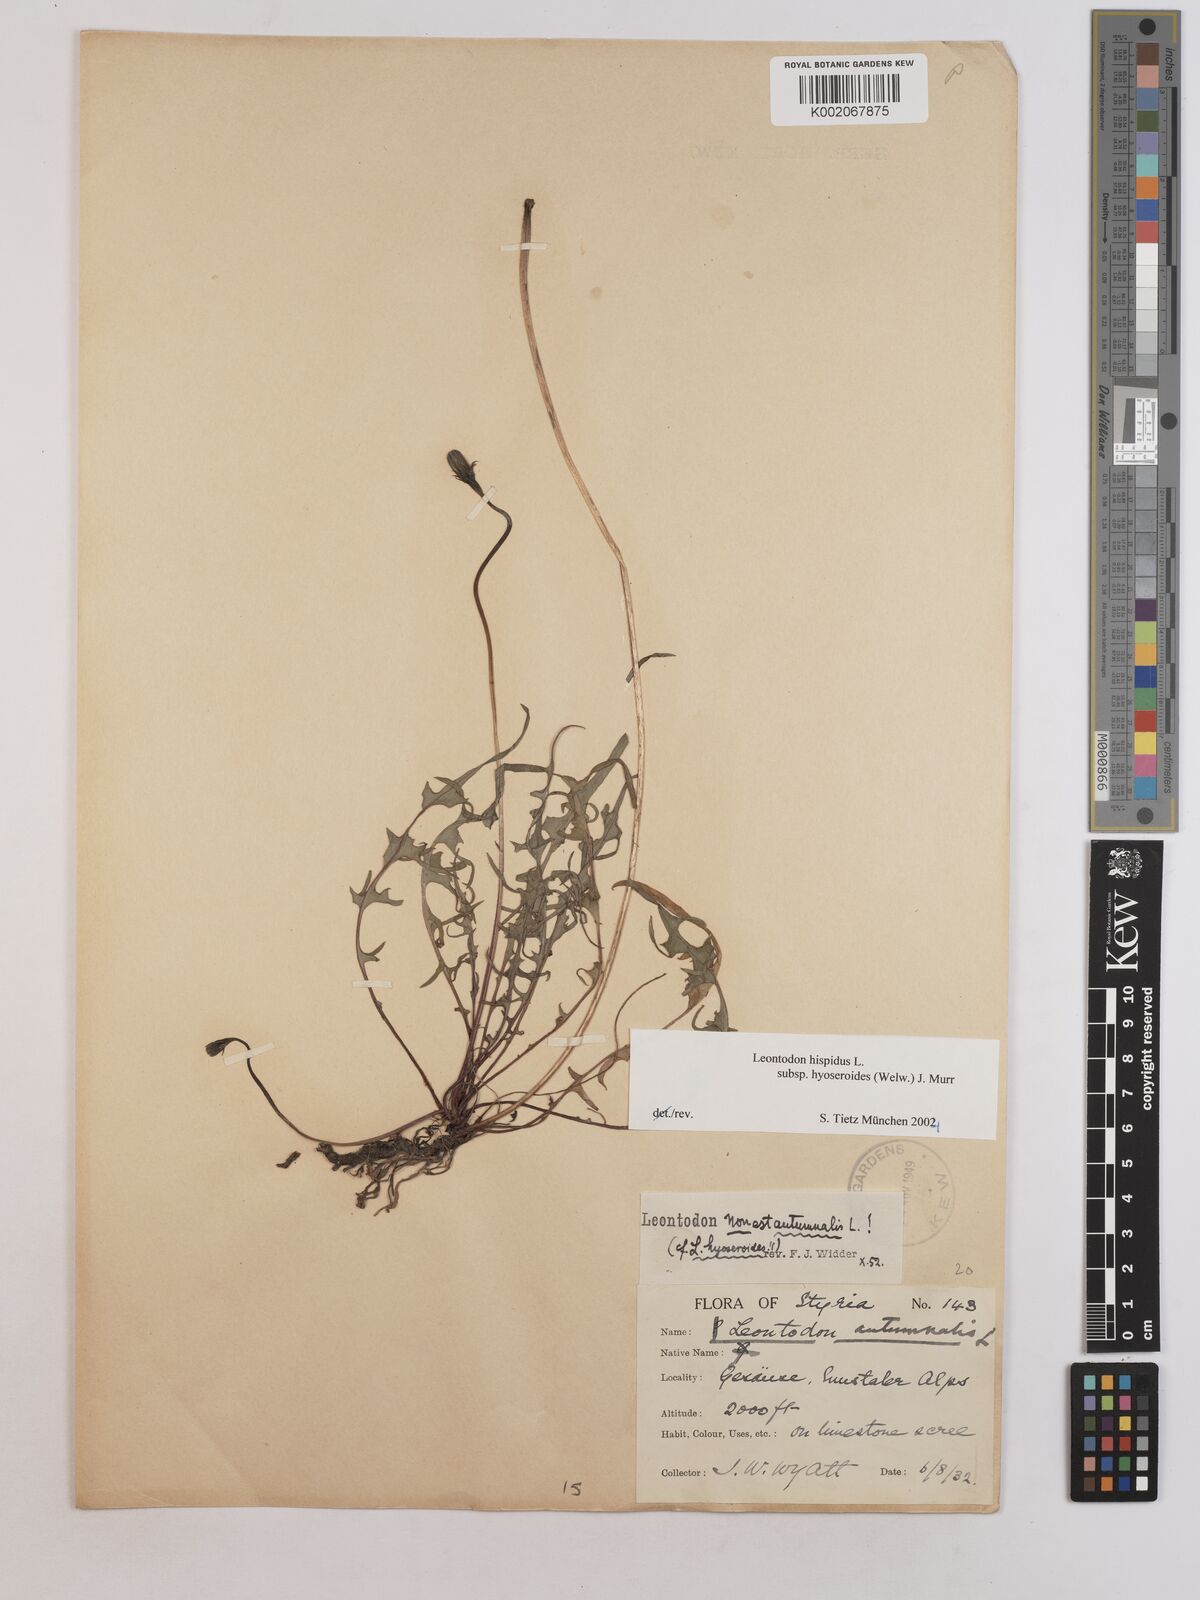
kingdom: Plantae
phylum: Tracheophyta
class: Magnoliopsida
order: Asterales
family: Asteraceae
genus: Leontodon
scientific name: Leontodon hispidus
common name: Rough hawkbit
